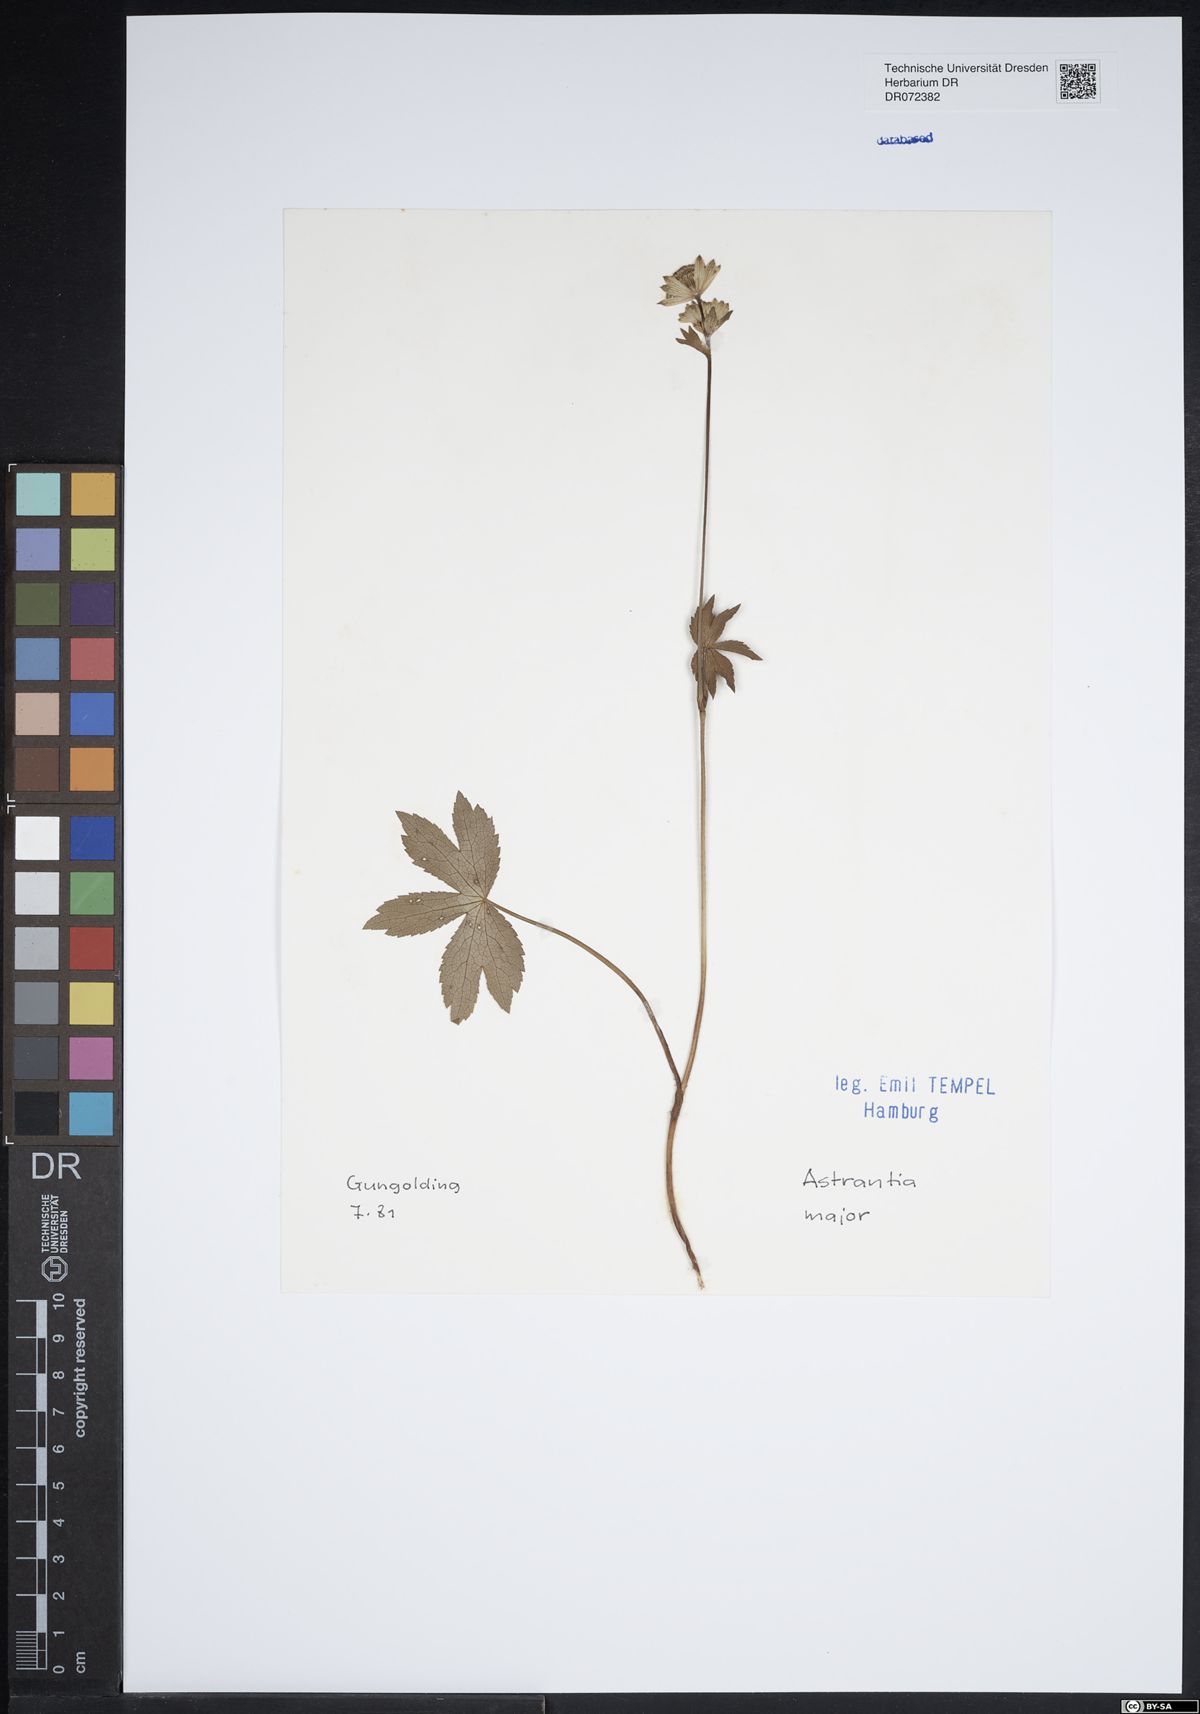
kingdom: Plantae
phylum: Tracheophyta
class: Magnoliopsida
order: Apiales
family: Apiaceae
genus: Astrantia
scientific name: Astrantia major
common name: Greater masterwort
